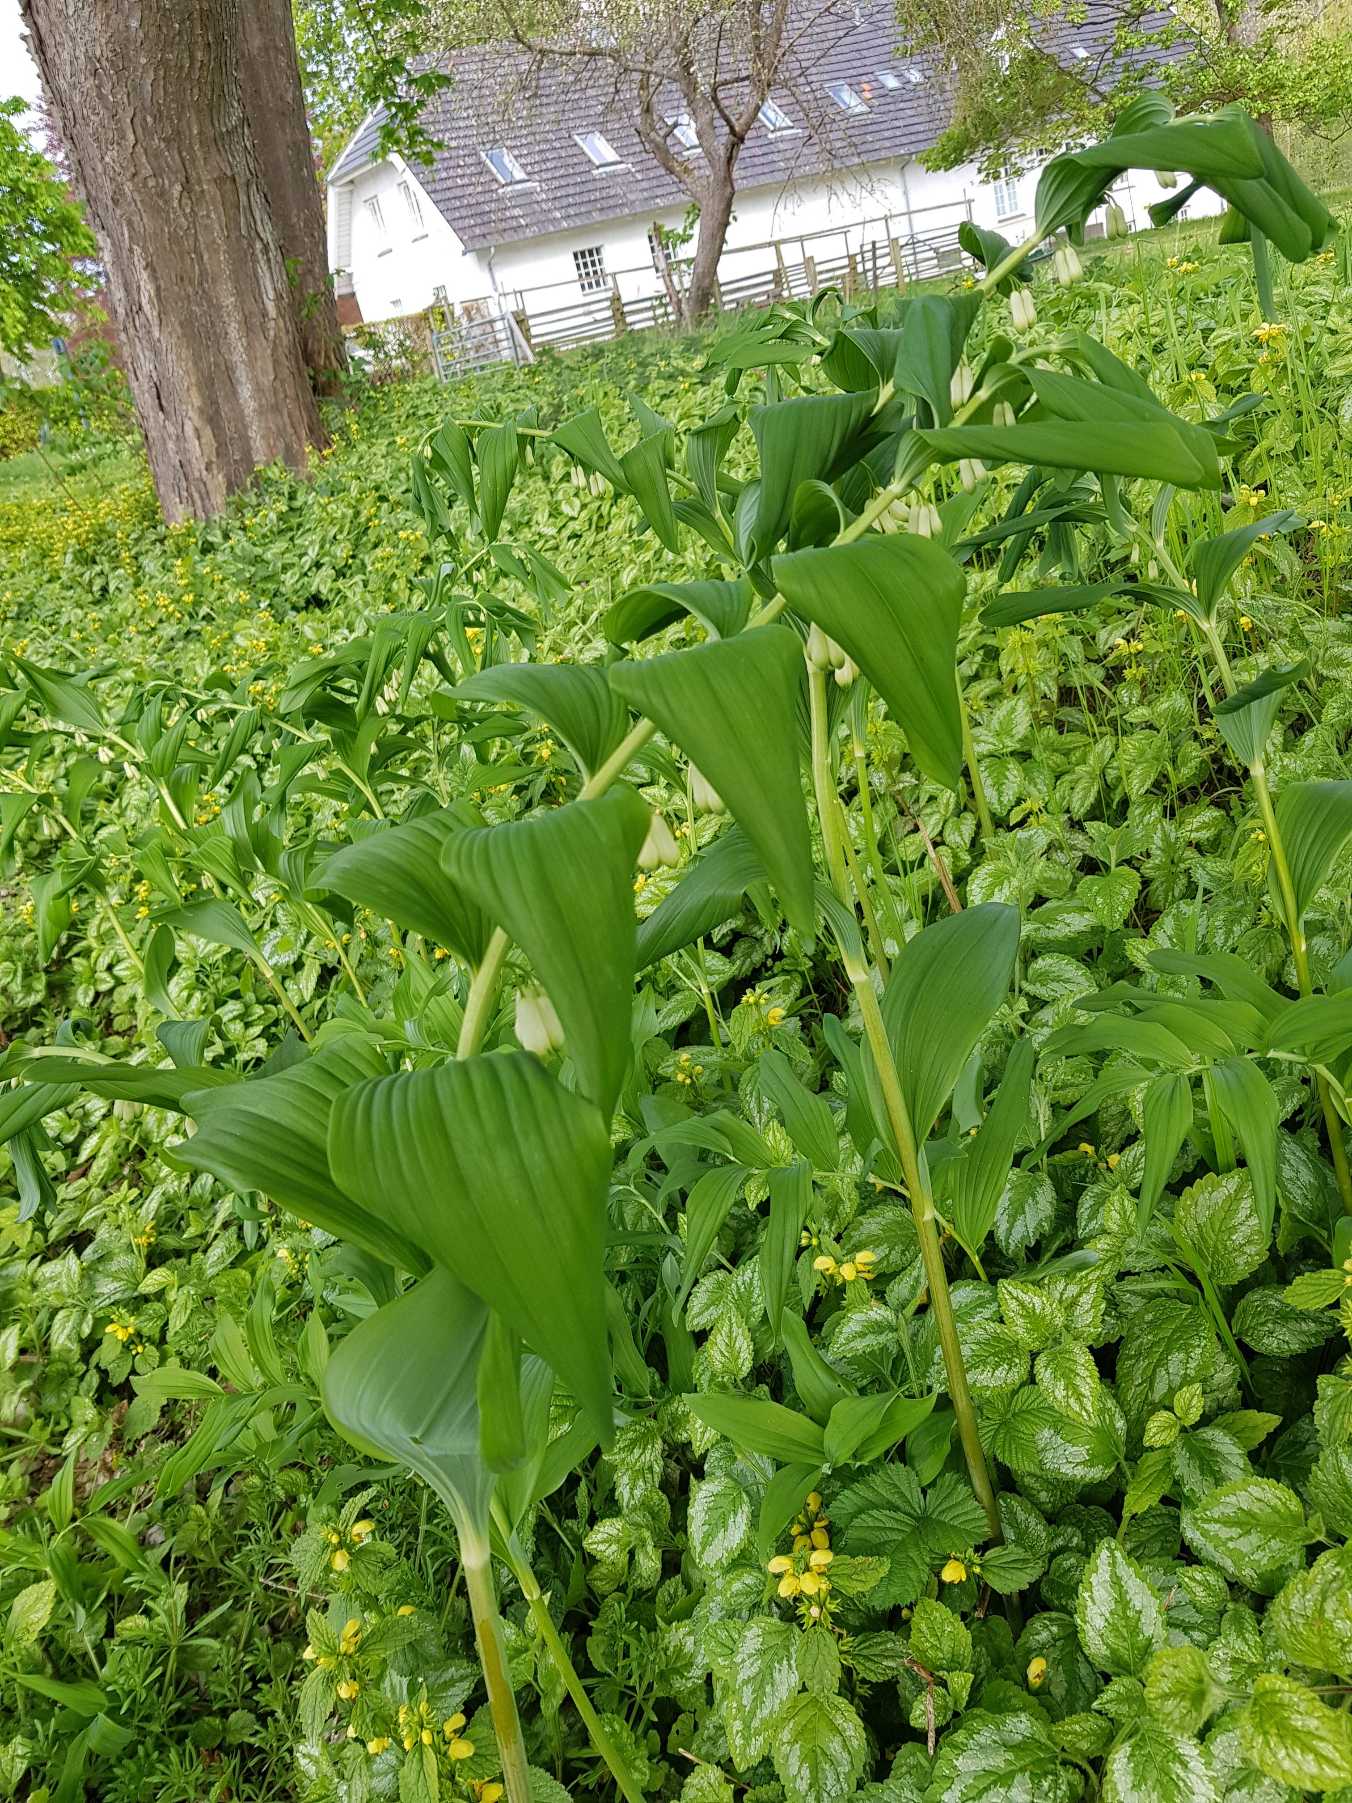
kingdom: Plantae
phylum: Tracheophyta
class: Liliopsida
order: Asparagales
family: Asparagaceae
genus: Polygonatum
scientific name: Polygonatum multiflorum
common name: Stor konval
